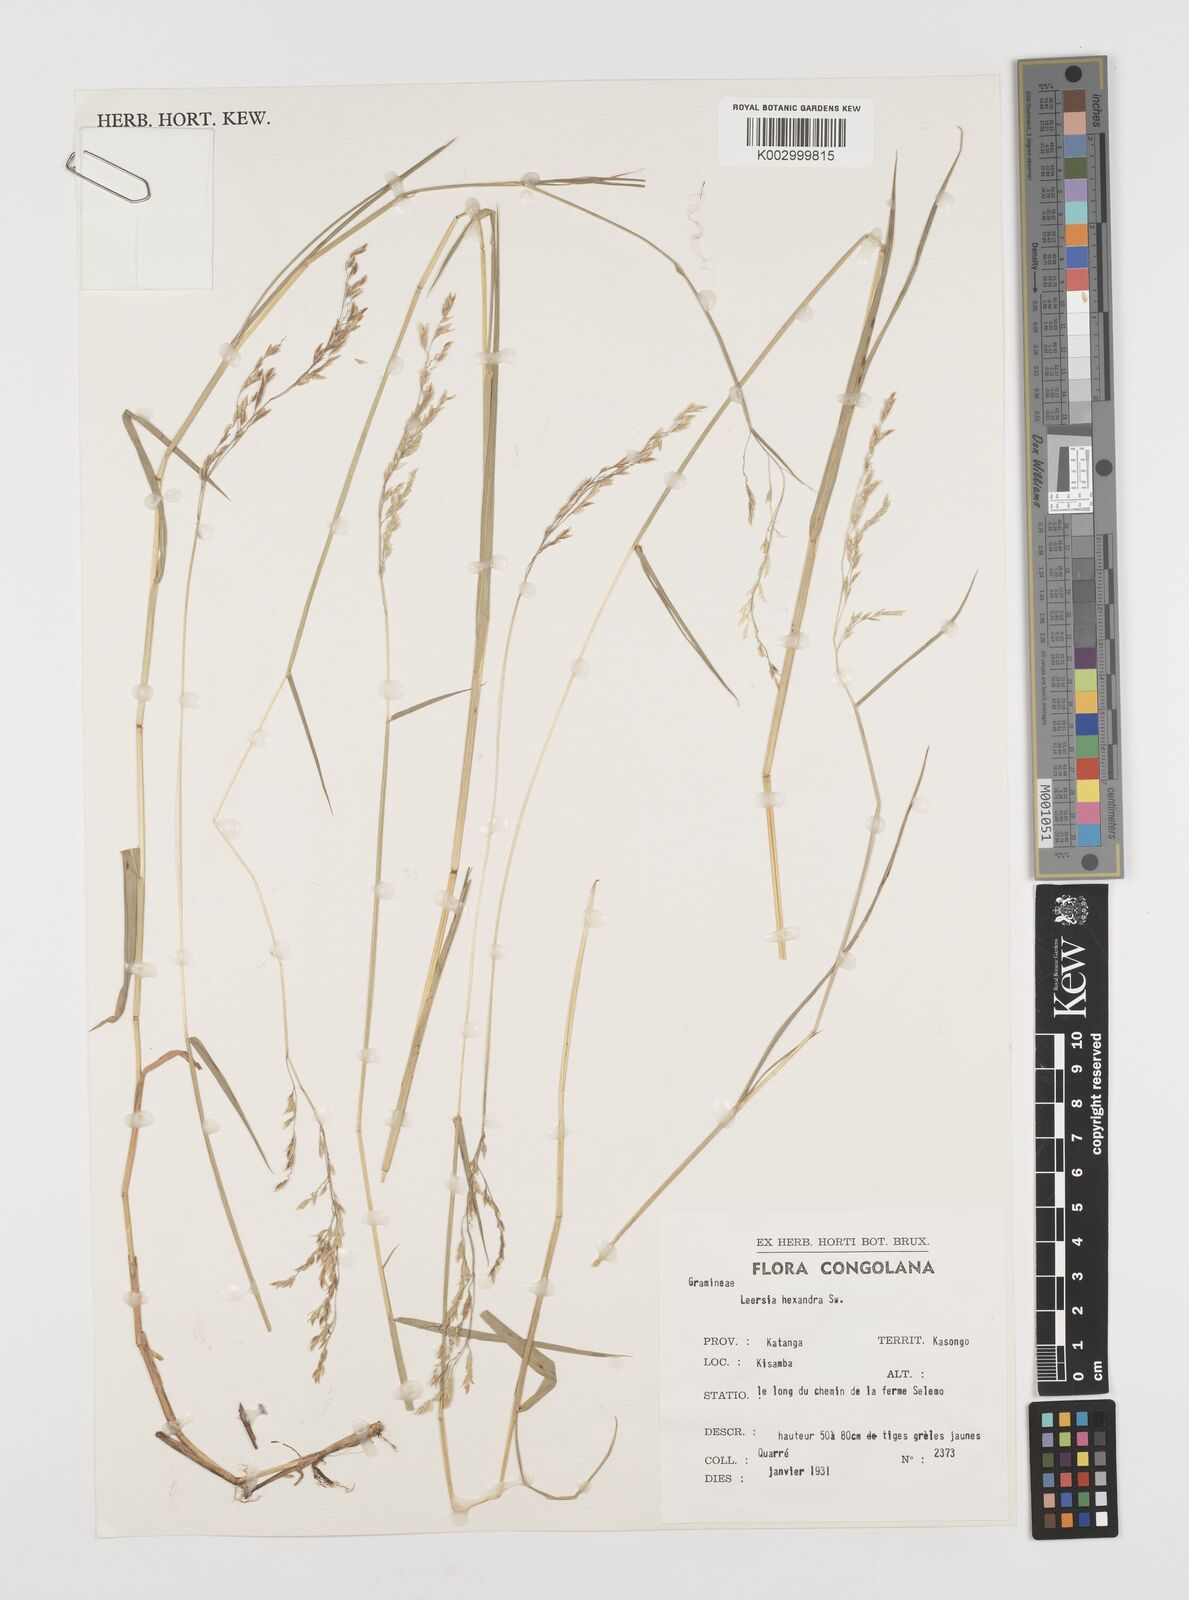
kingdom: Plantae
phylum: Tracheophyta
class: Liliopsida
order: Poales
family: Poaceae
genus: Leersia
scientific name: Leersia hexandra
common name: Southern cut grass
